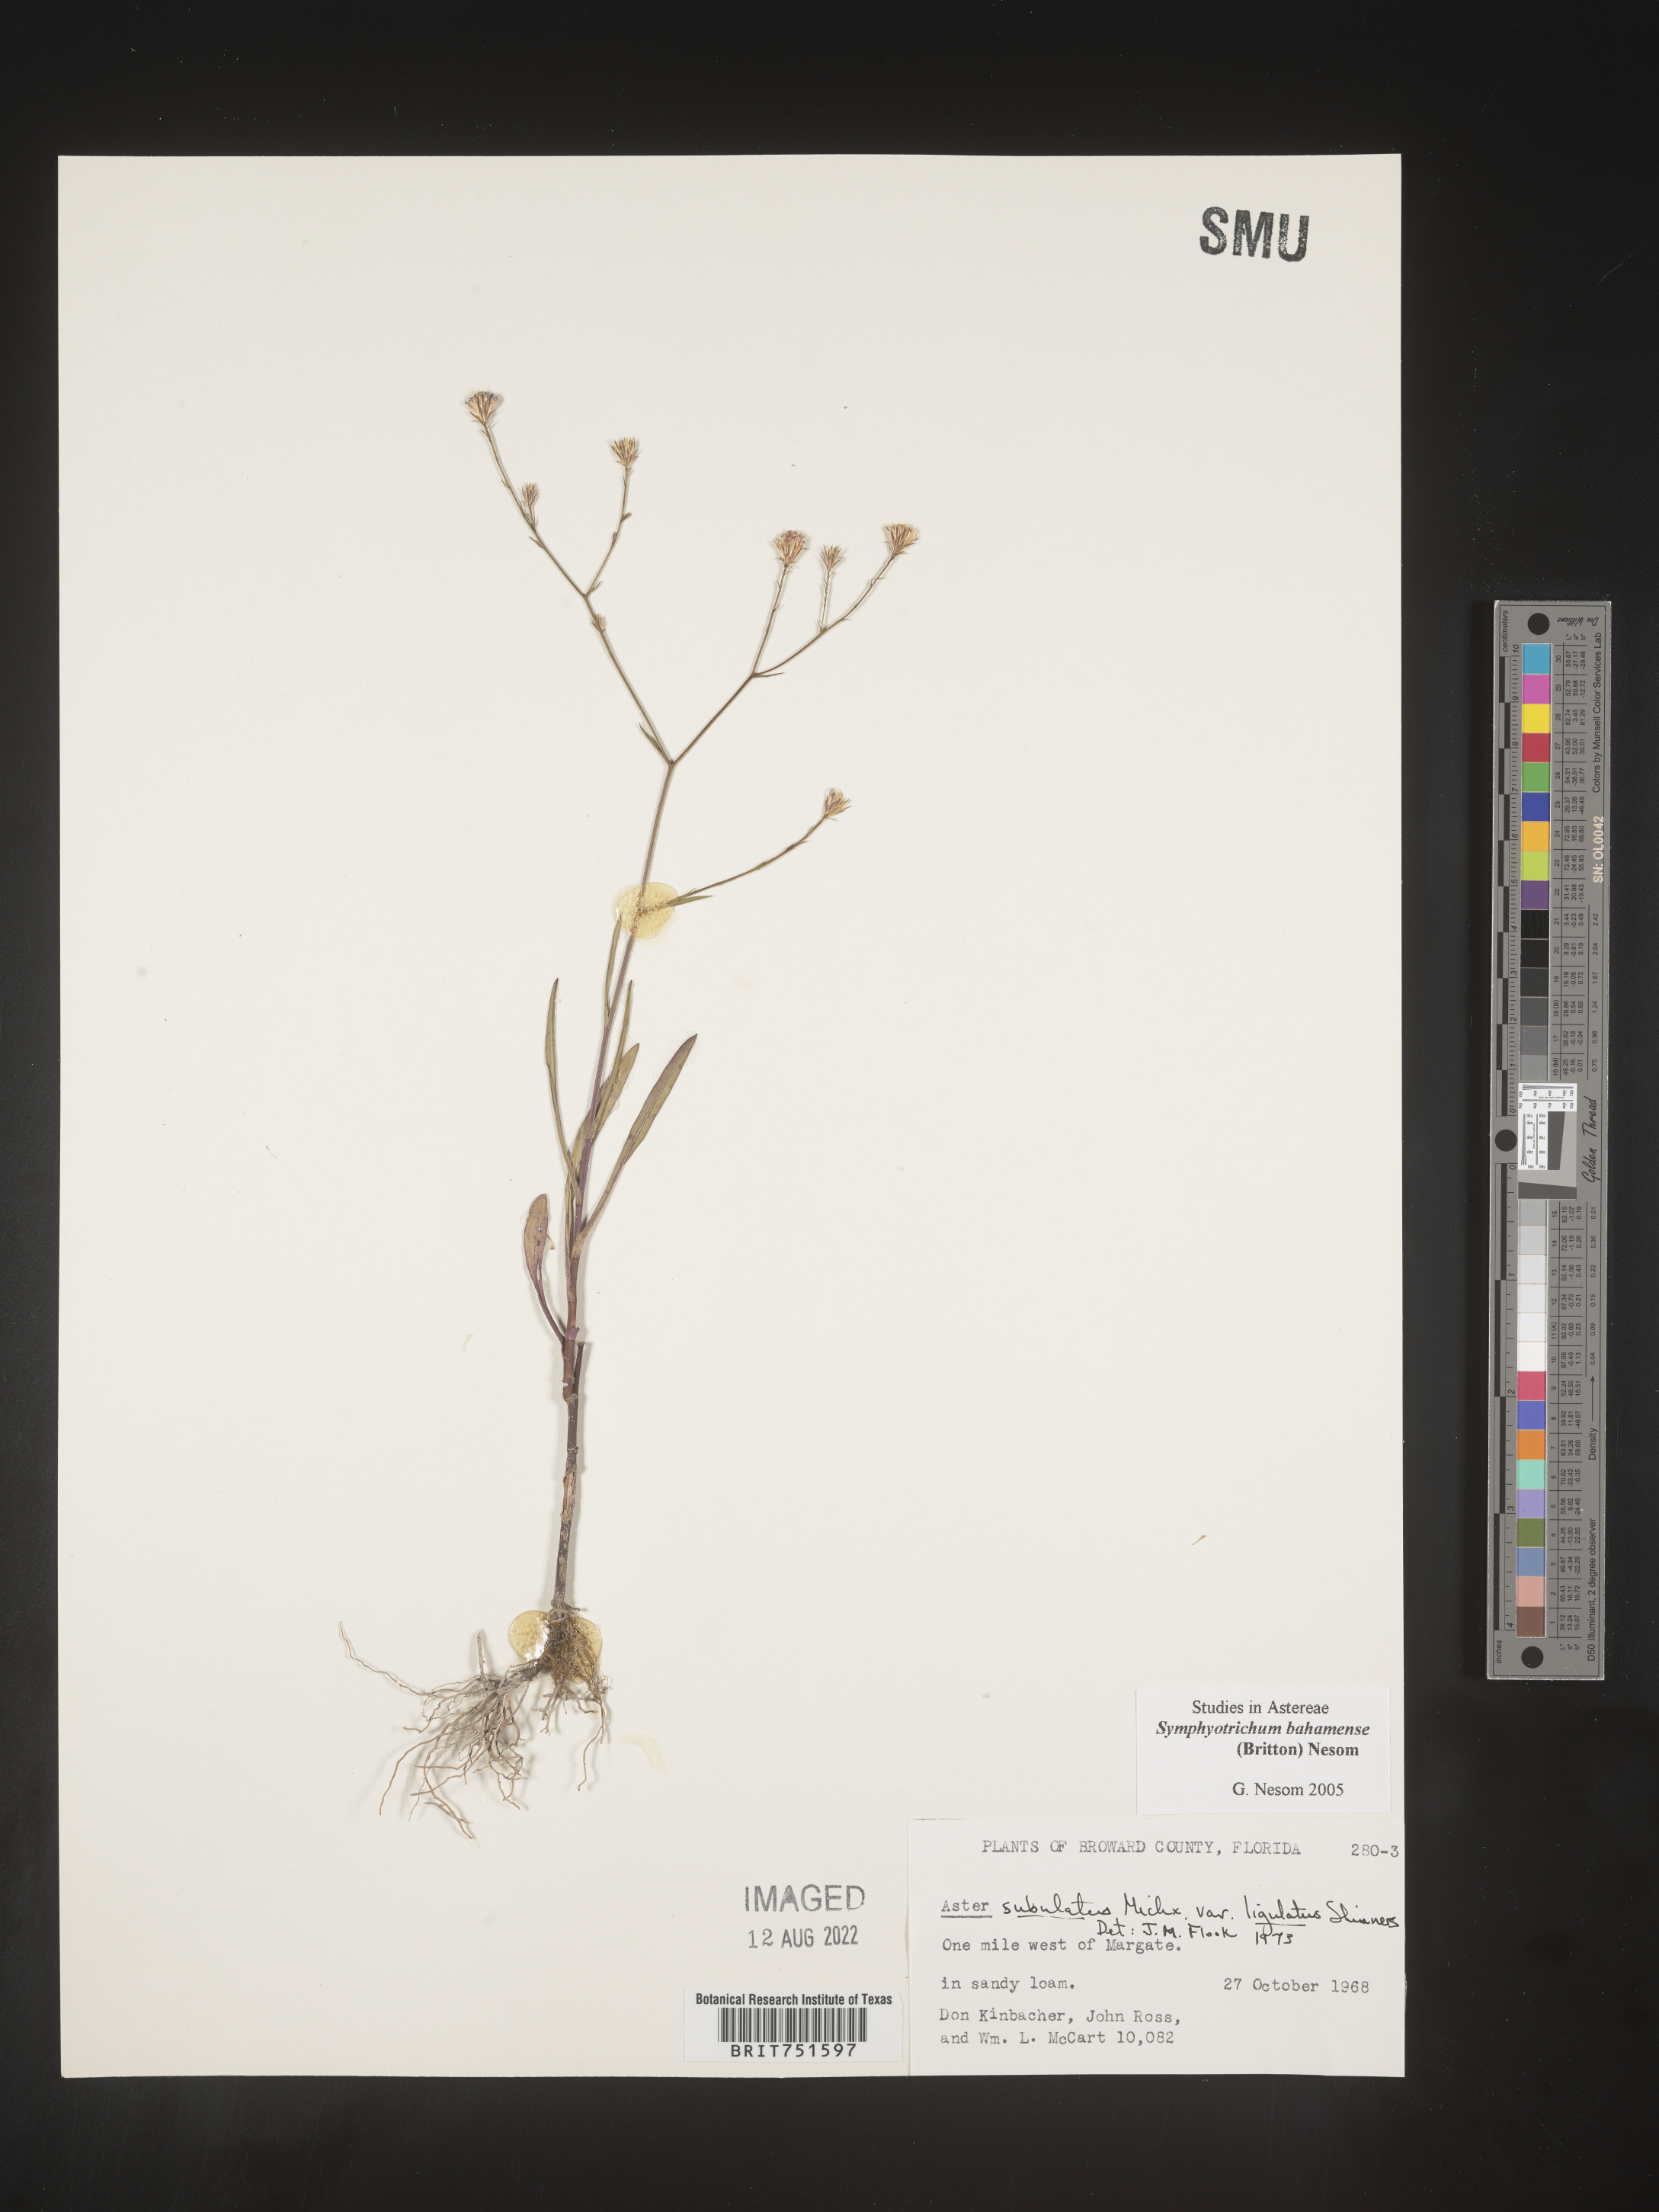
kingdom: Plantae
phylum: Tracheophyta
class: Magnoliopsida
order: Asterales
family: Asteraceae
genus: Symphyotrichum
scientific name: Symphyotrichum subulatum
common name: Annual saltmarsh aster
